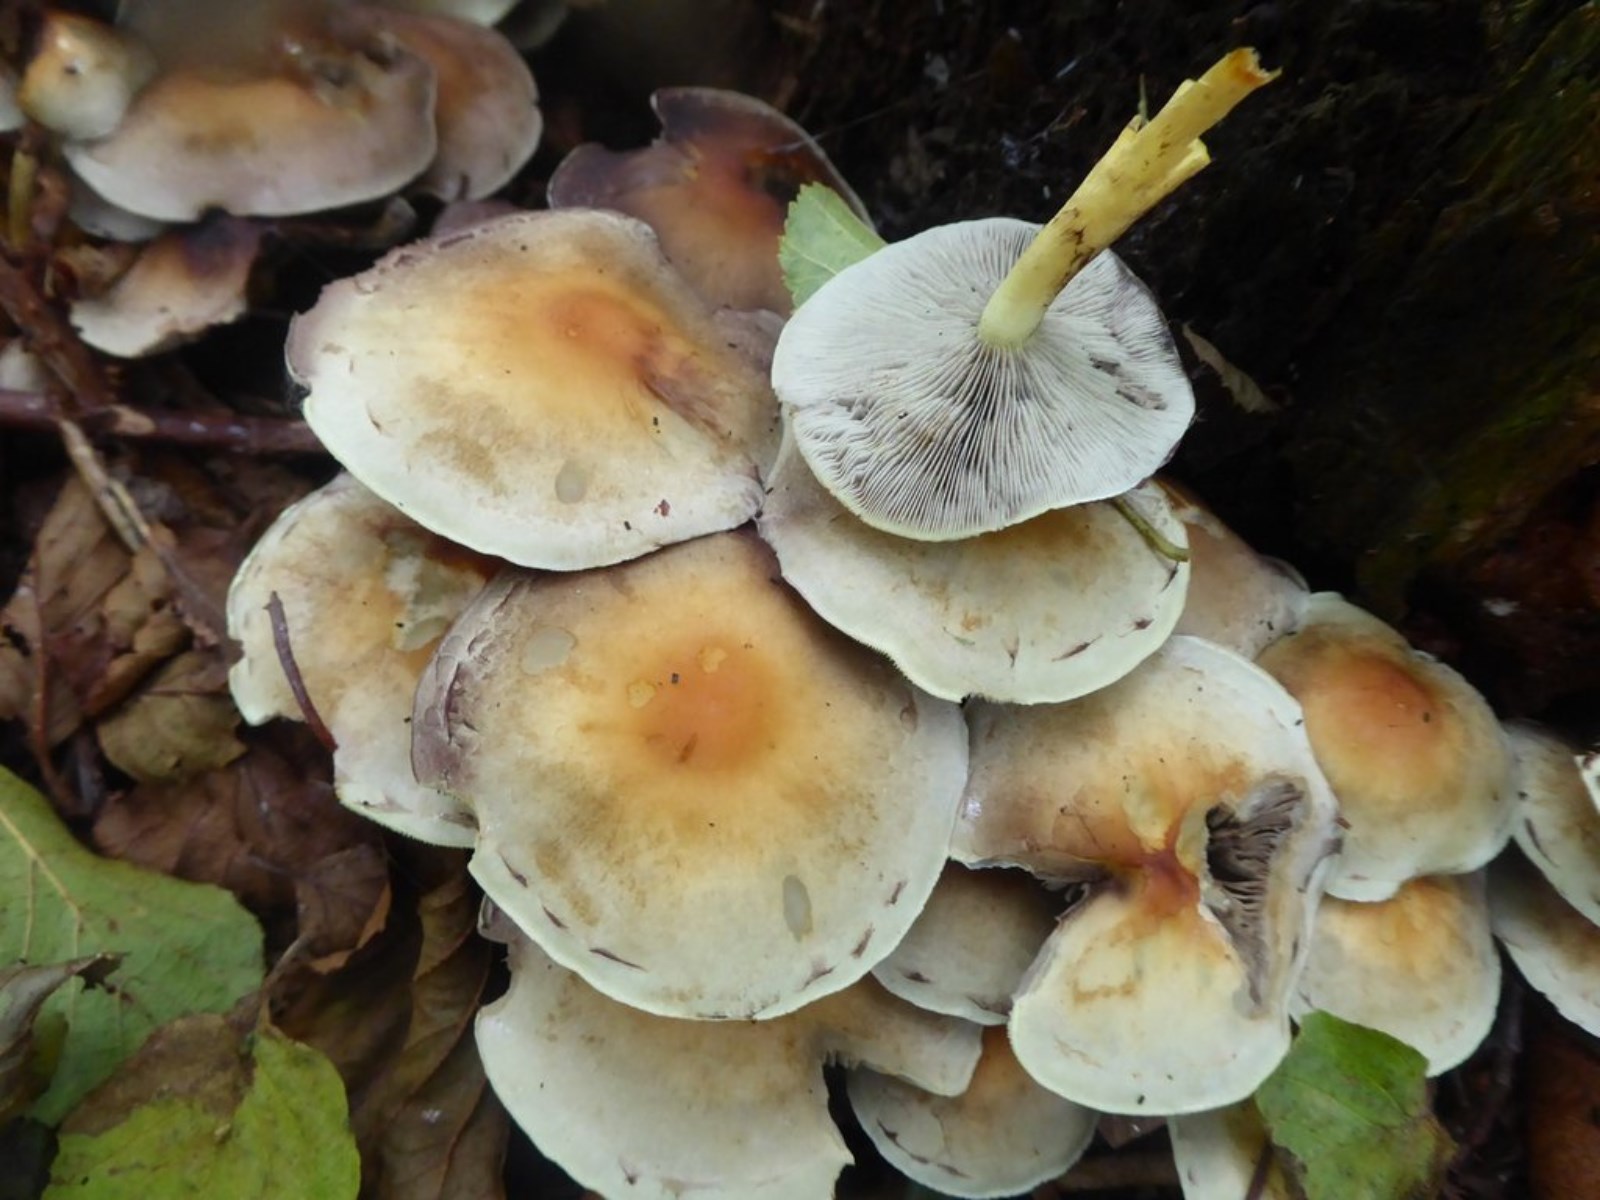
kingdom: Fungi
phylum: Basidiomycota
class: Agaricomycetes
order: Agaricales
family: Strophariaceae
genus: Hypholoma
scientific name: Hypholoma fasciculare
